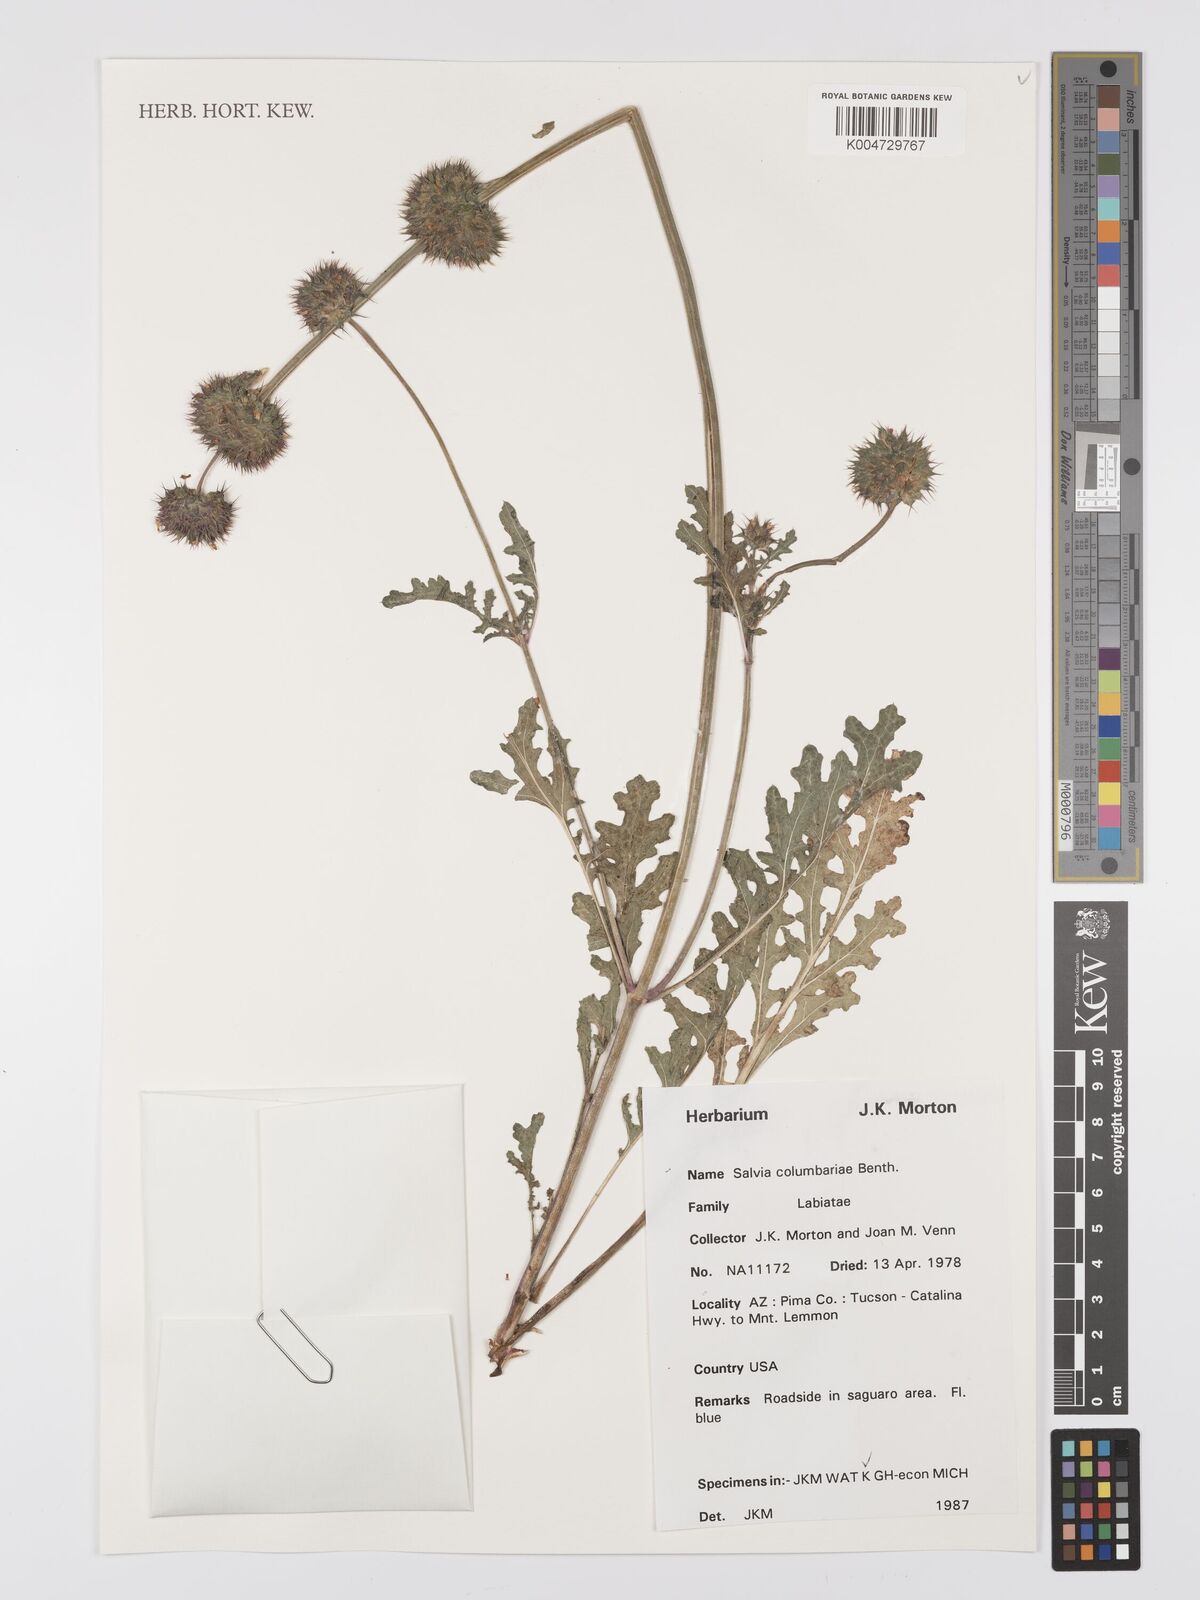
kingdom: Plantae
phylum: Tracheophyta
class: Magnoliopsida
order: Lamiales
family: Lamiaceae
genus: Salvia
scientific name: Salvia columbariae
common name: Chia
